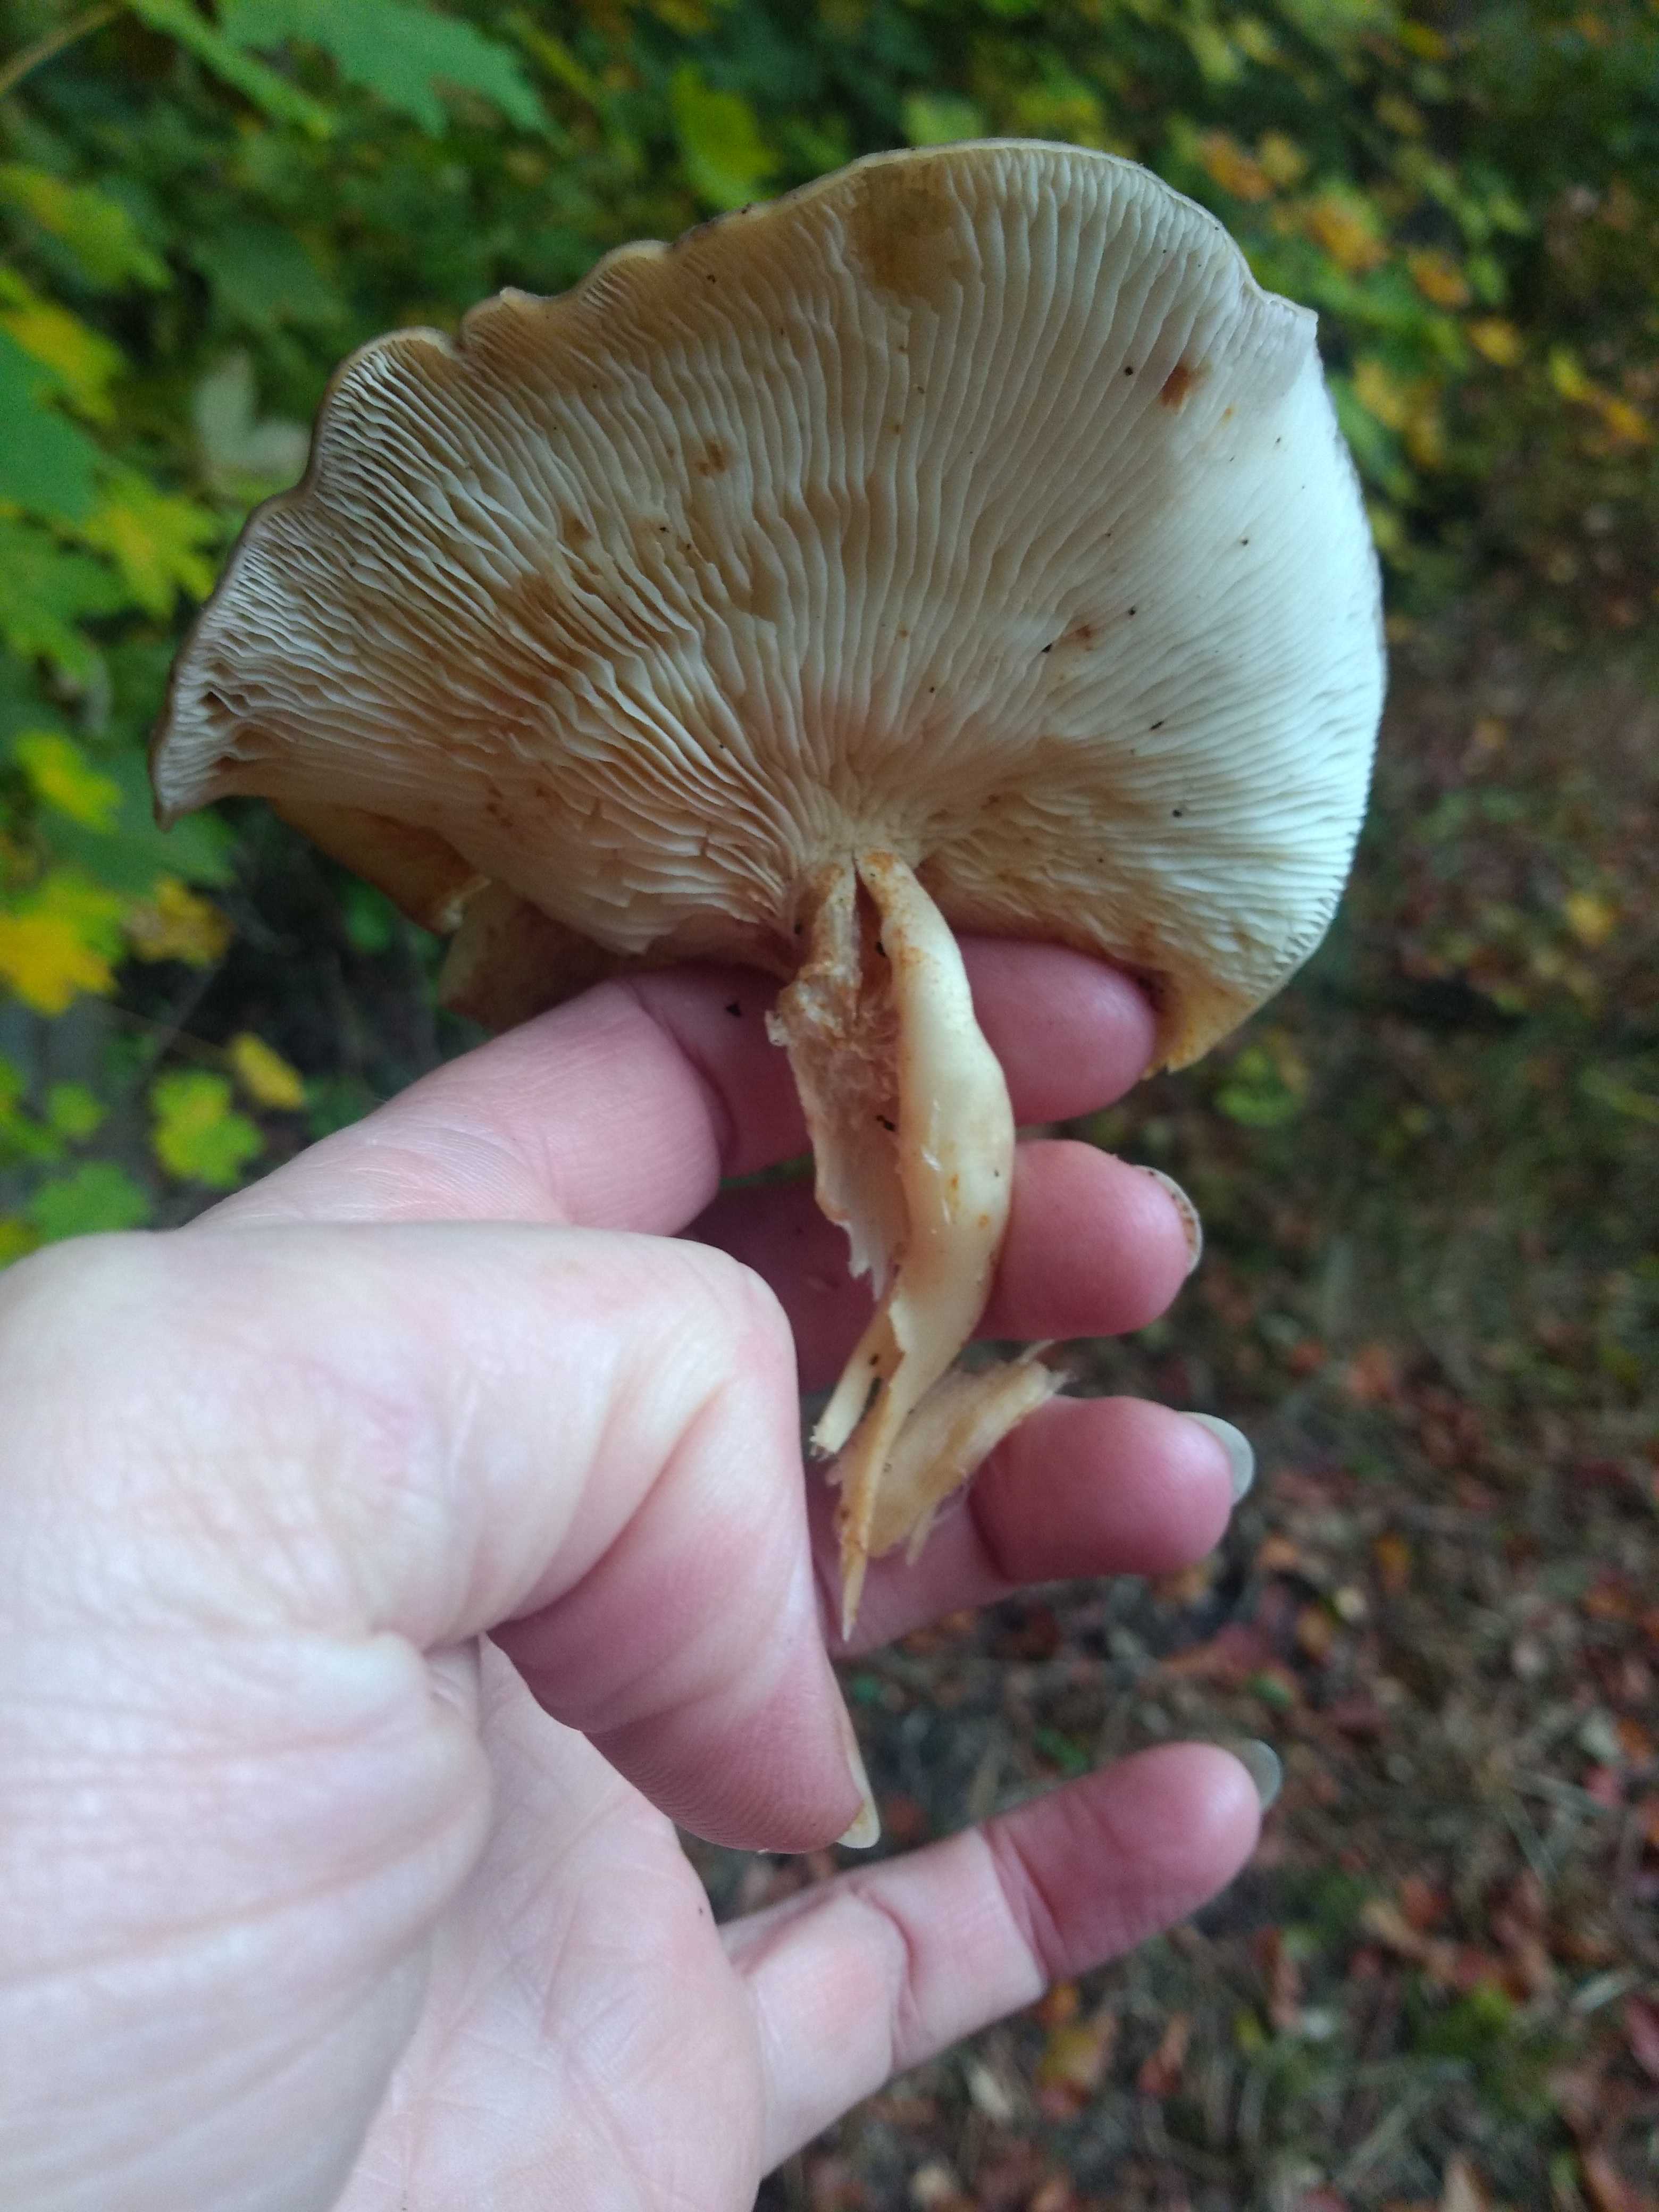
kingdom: Fungi
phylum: Basidiomycota
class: Agaricomycetes
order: Agaricales
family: Lyophyllaceae
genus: Lyophyllum
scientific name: Lyophyllum decastes
